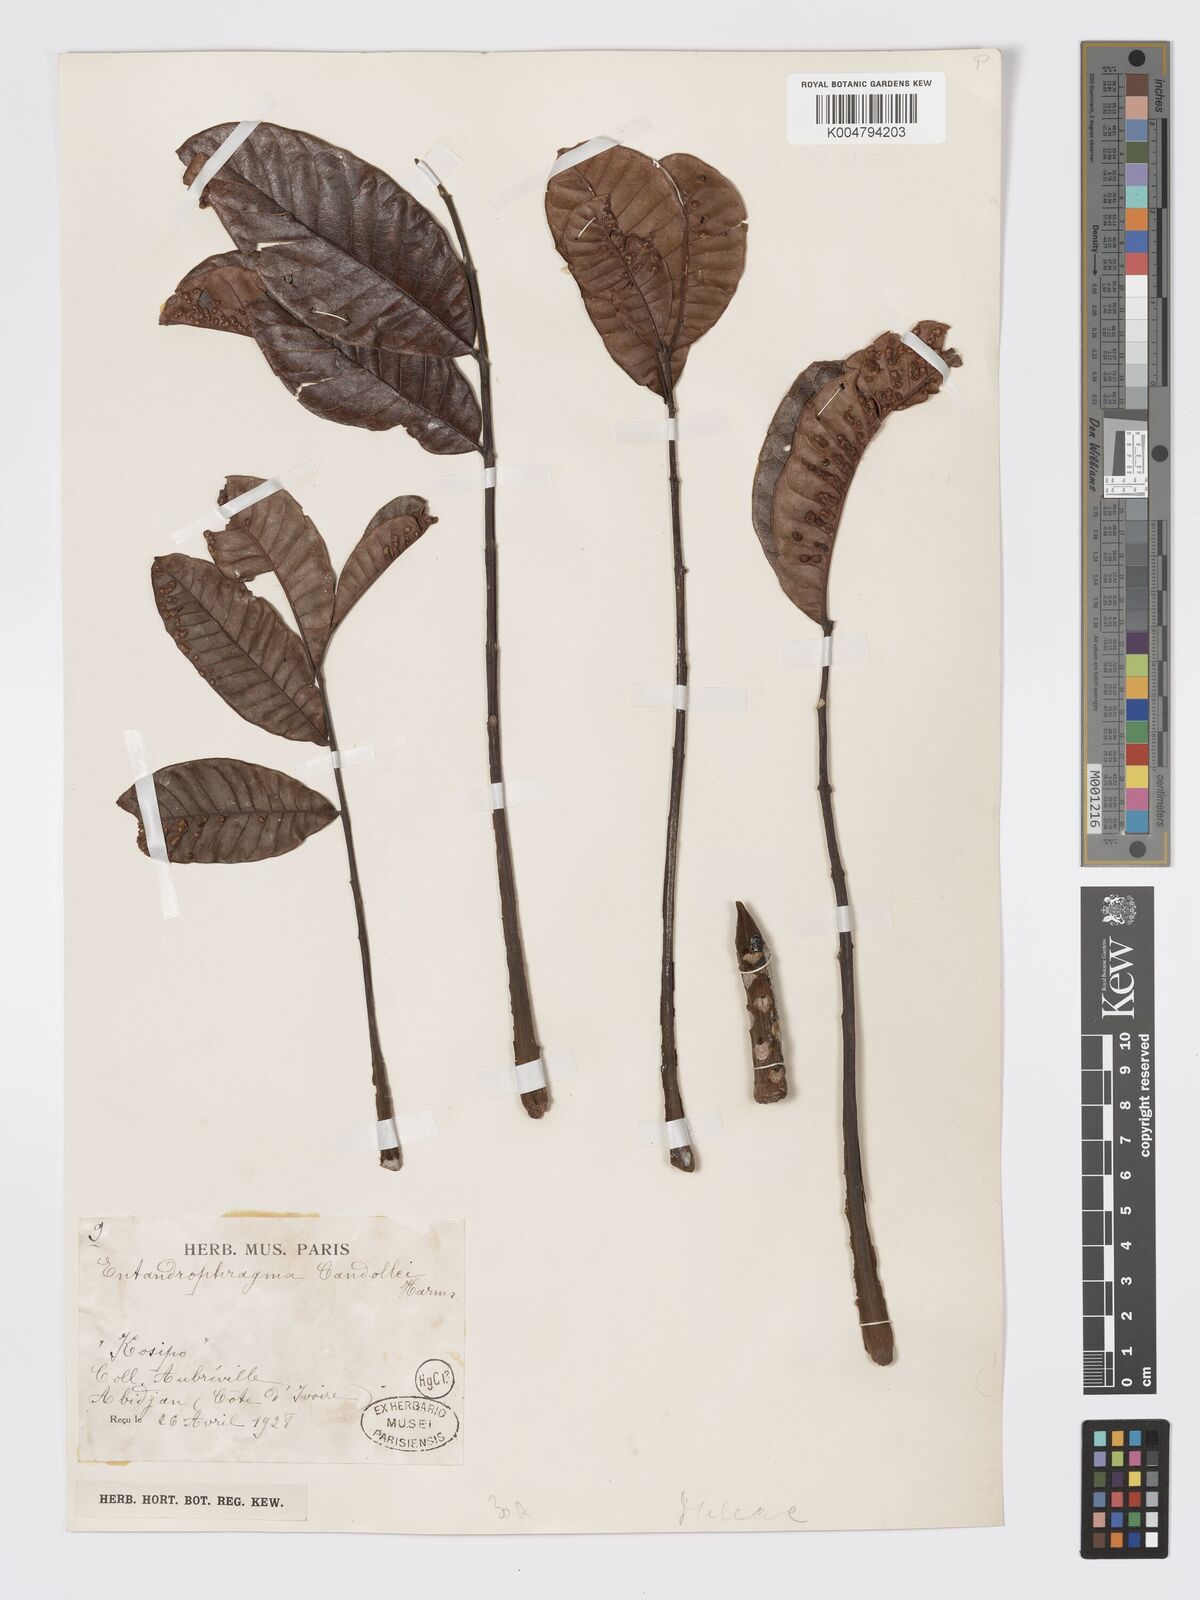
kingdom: Plantae
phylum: Tracheophyta
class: Magnoliopsida
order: Sapindales
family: Meliaceae
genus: Entandrophragma
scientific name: Entandrophragma candollei
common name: Cedar kokoti
